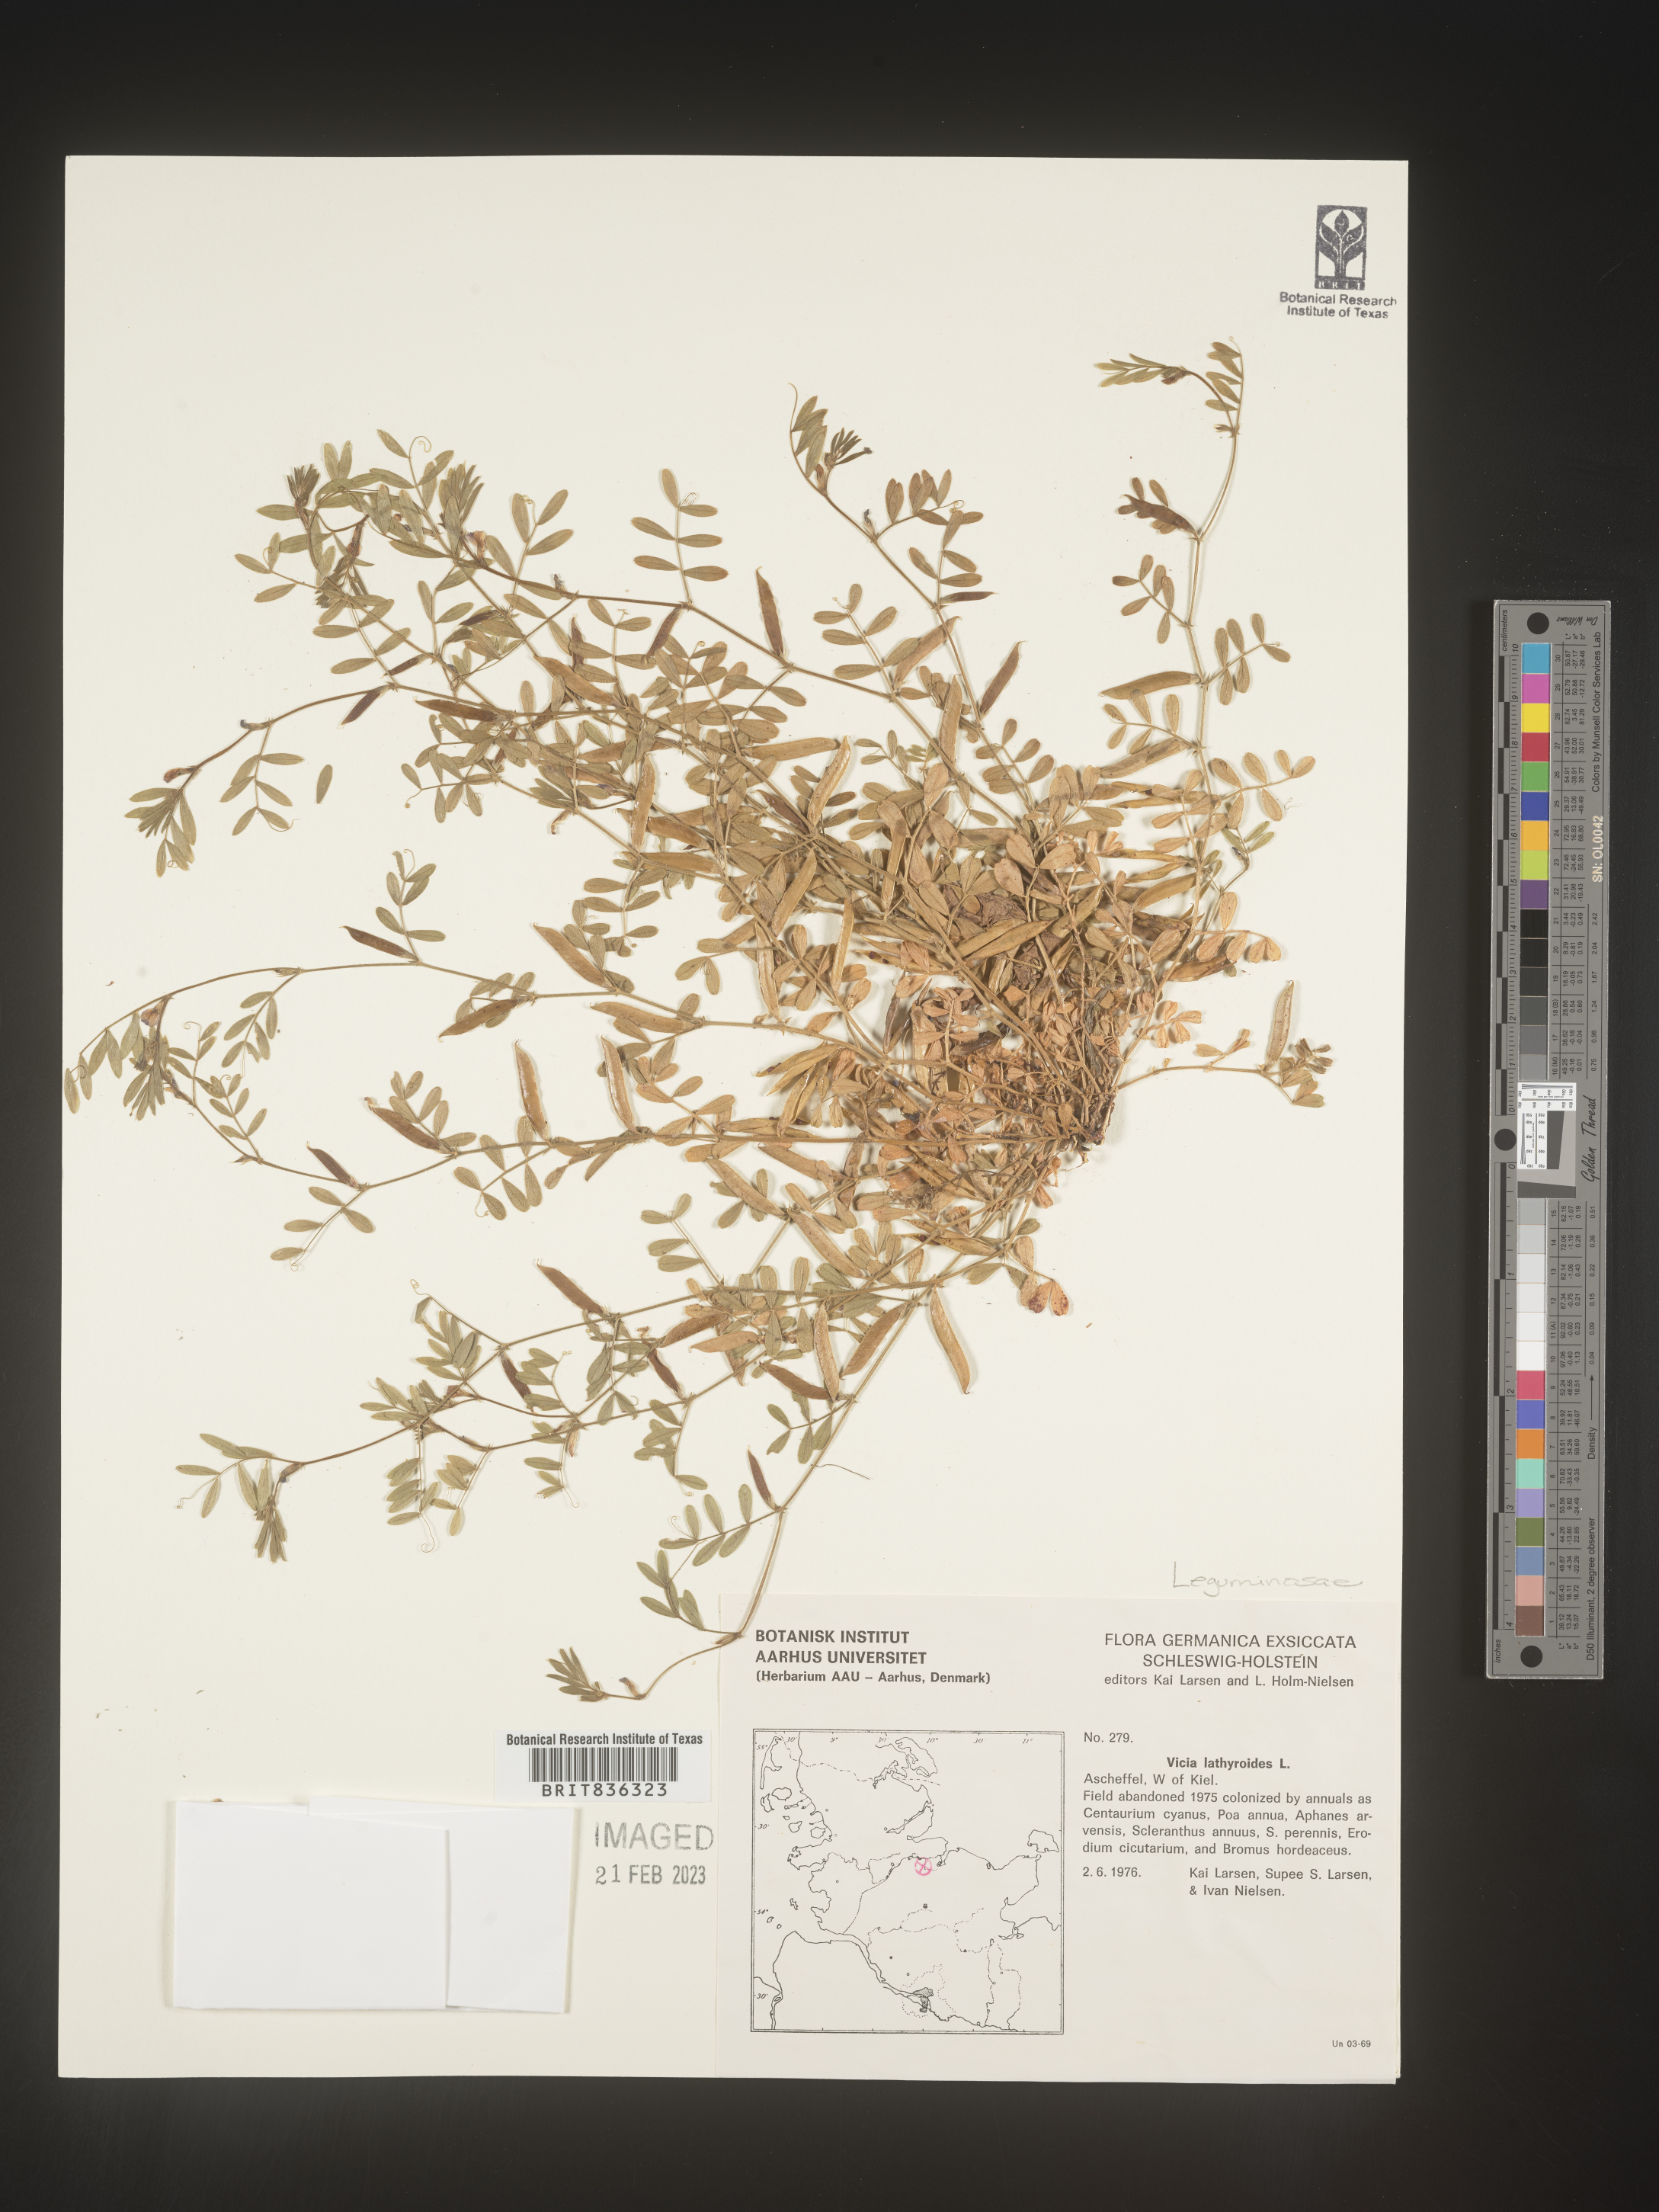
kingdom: Plantae
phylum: Tracheophyta
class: Magnoliopsida
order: Fabales
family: Fabaceae
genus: Vicia
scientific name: Vicia
